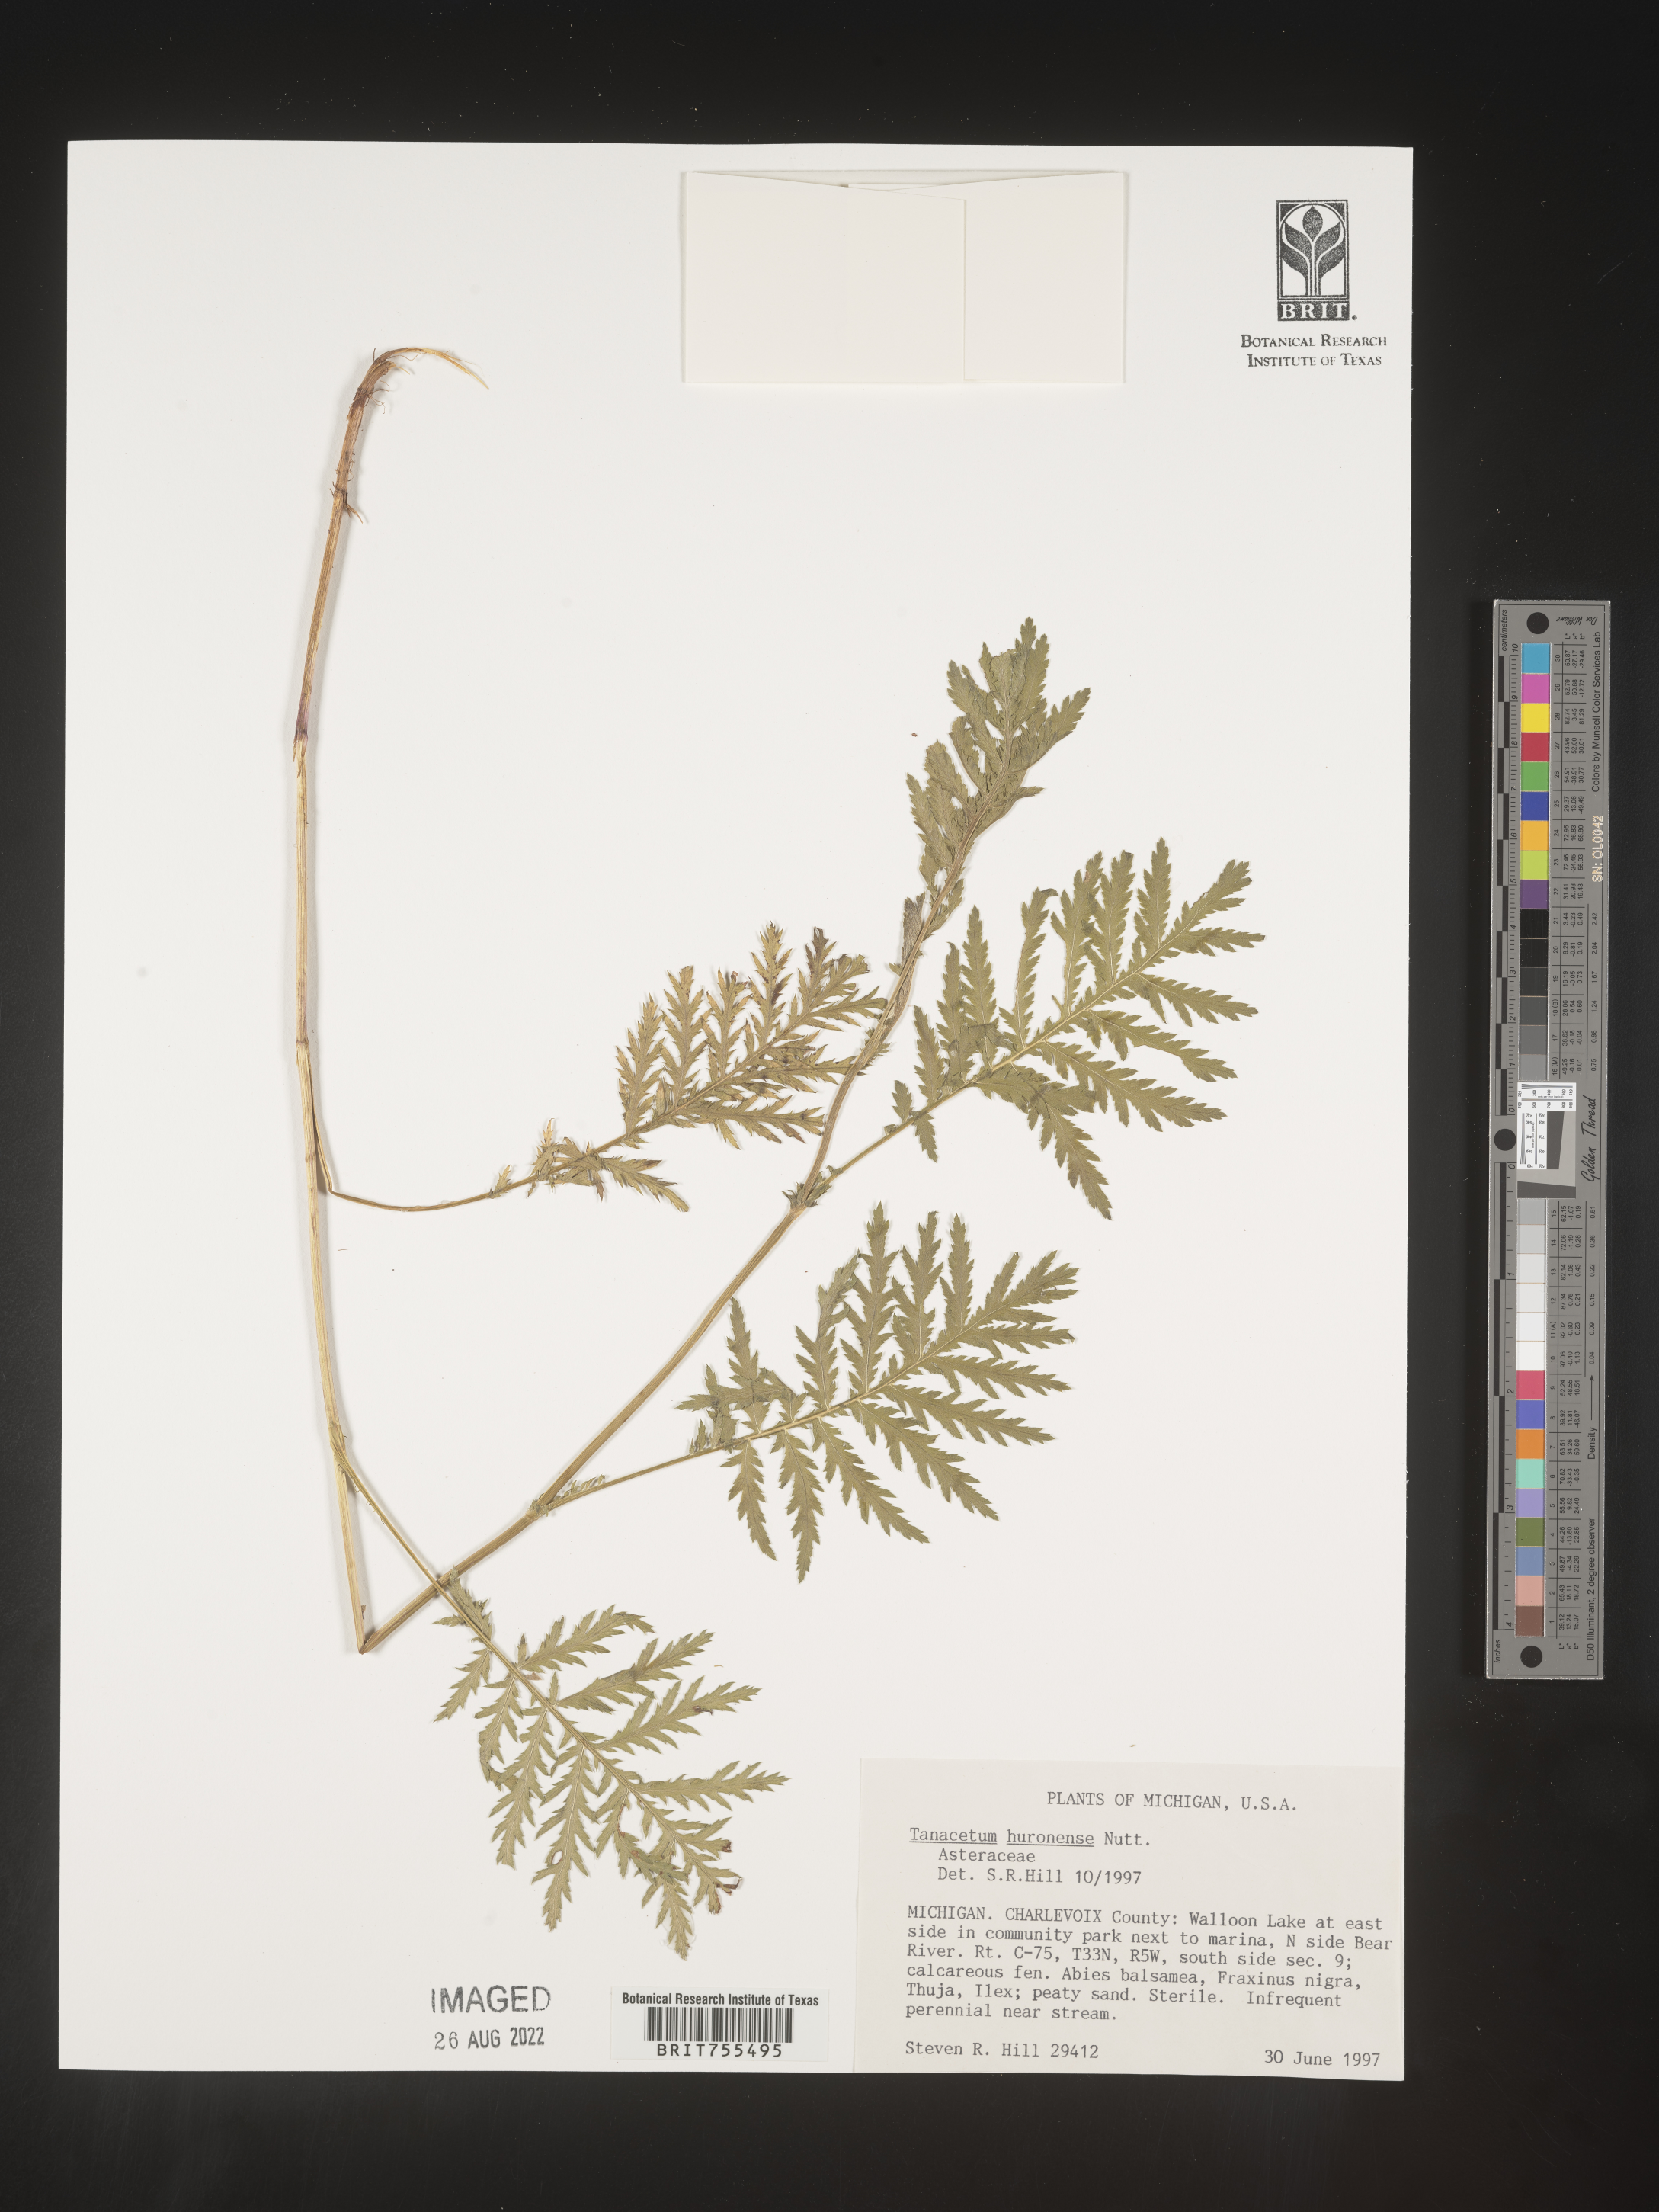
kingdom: Plantae
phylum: Tracheophyta
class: Magnoliopsida
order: Asterales
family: Asteraceae
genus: Tanacetum
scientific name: Tanacetum bipinnatum
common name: Dwarf tansy
